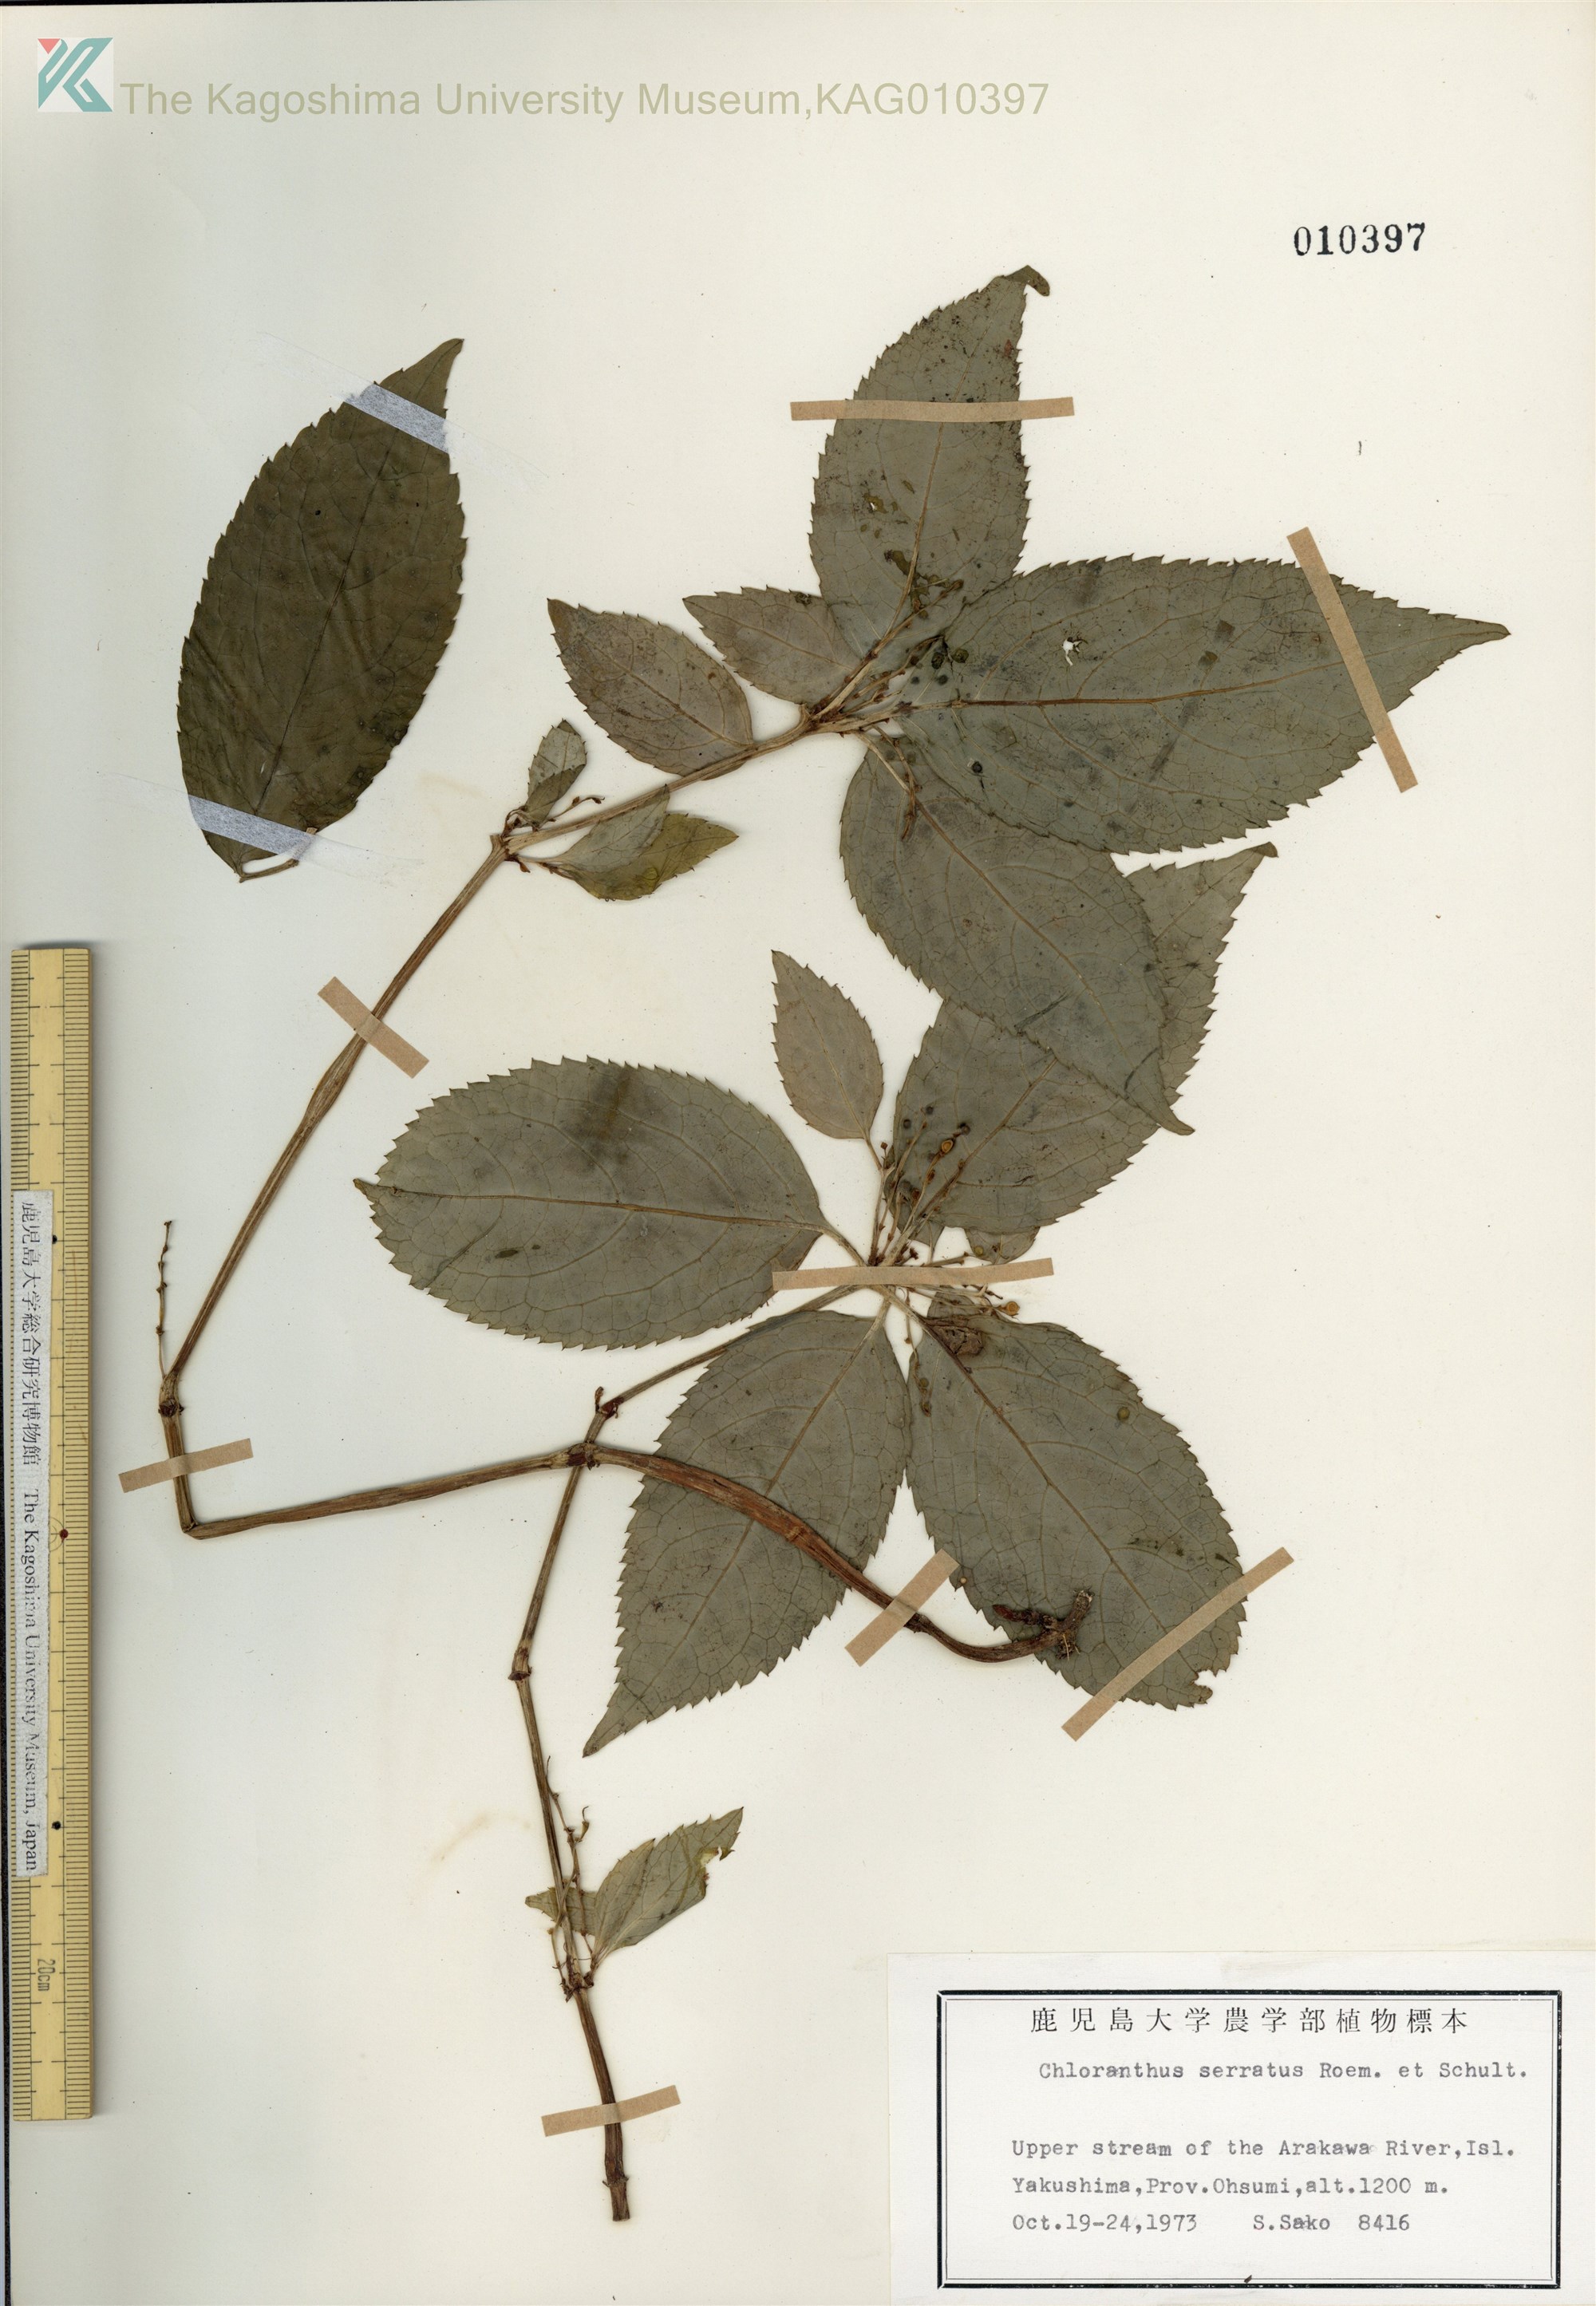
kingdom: Plantae
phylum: Tracheophyta
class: Magnoliopsida
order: Chloranthales
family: Chloranthaceae
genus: Chloranthus
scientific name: Chloranthus serratus
